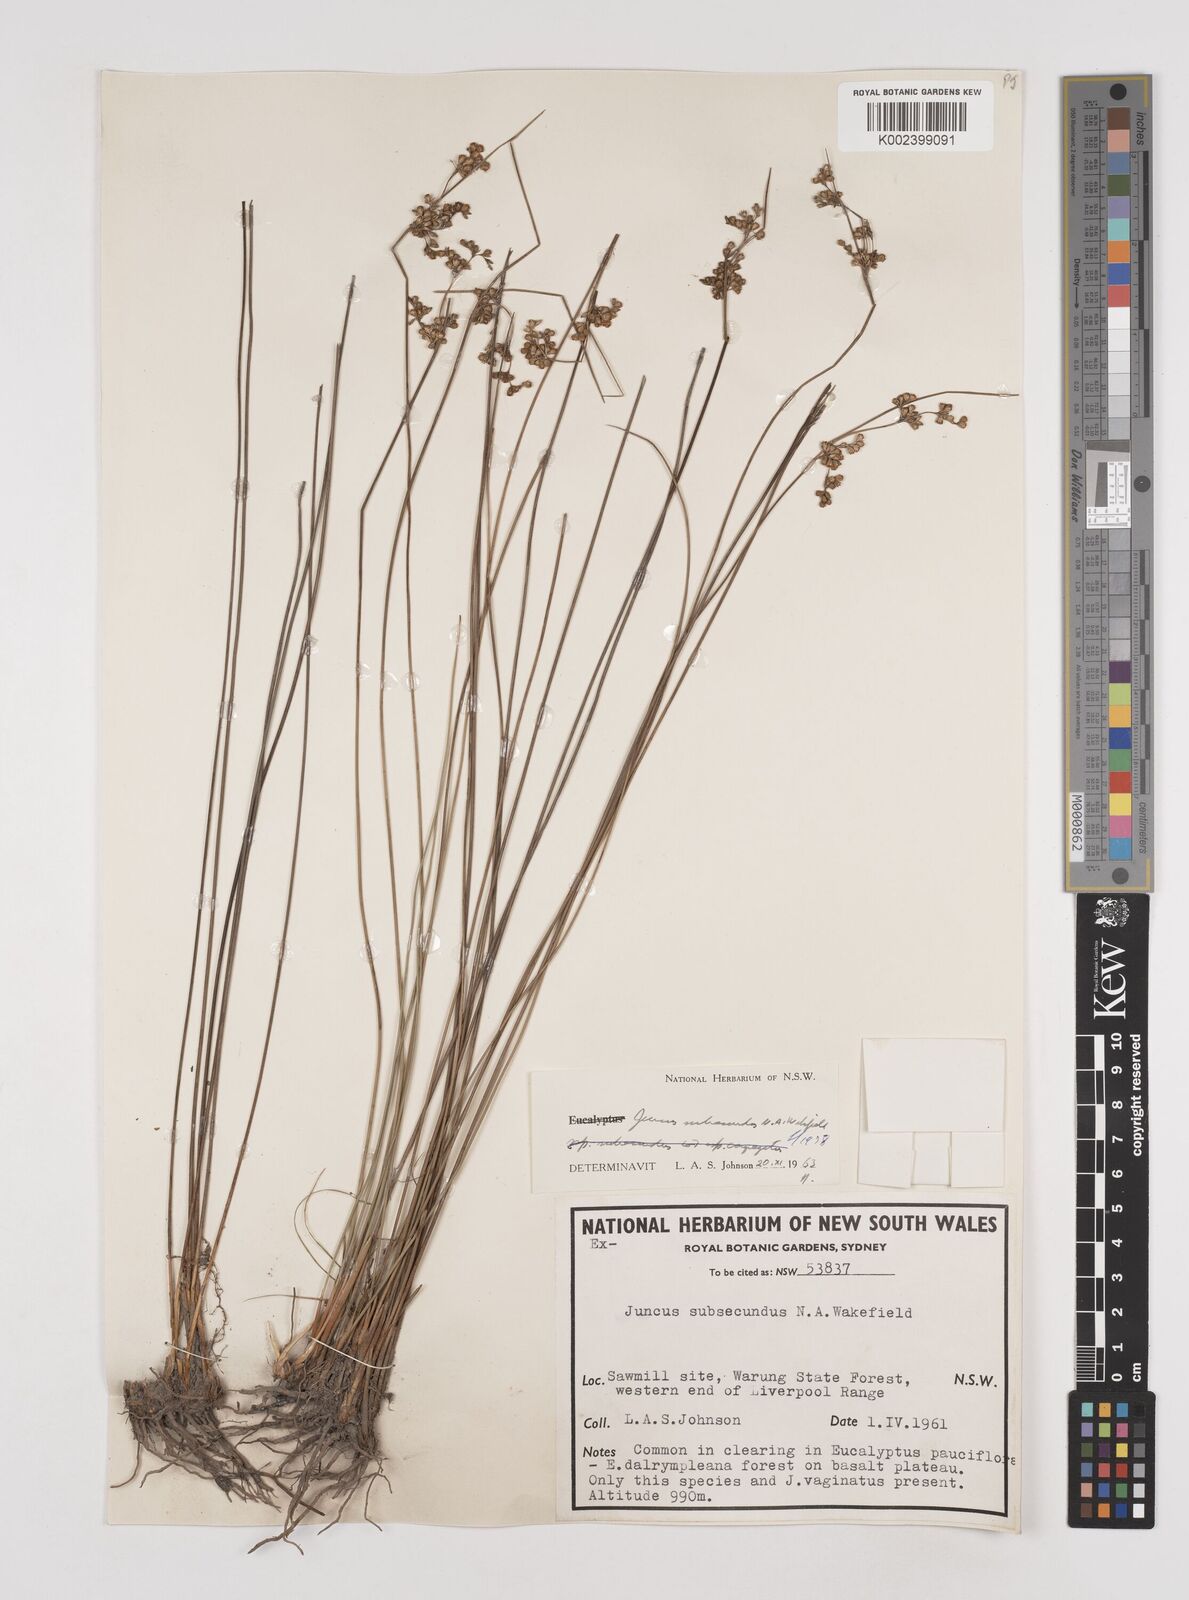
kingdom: Plantae
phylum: Tracheophyta
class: Liliopsida
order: Poales
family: Juncaceae
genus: Juncus
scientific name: Juncus subsecundus
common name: Fingered rush
